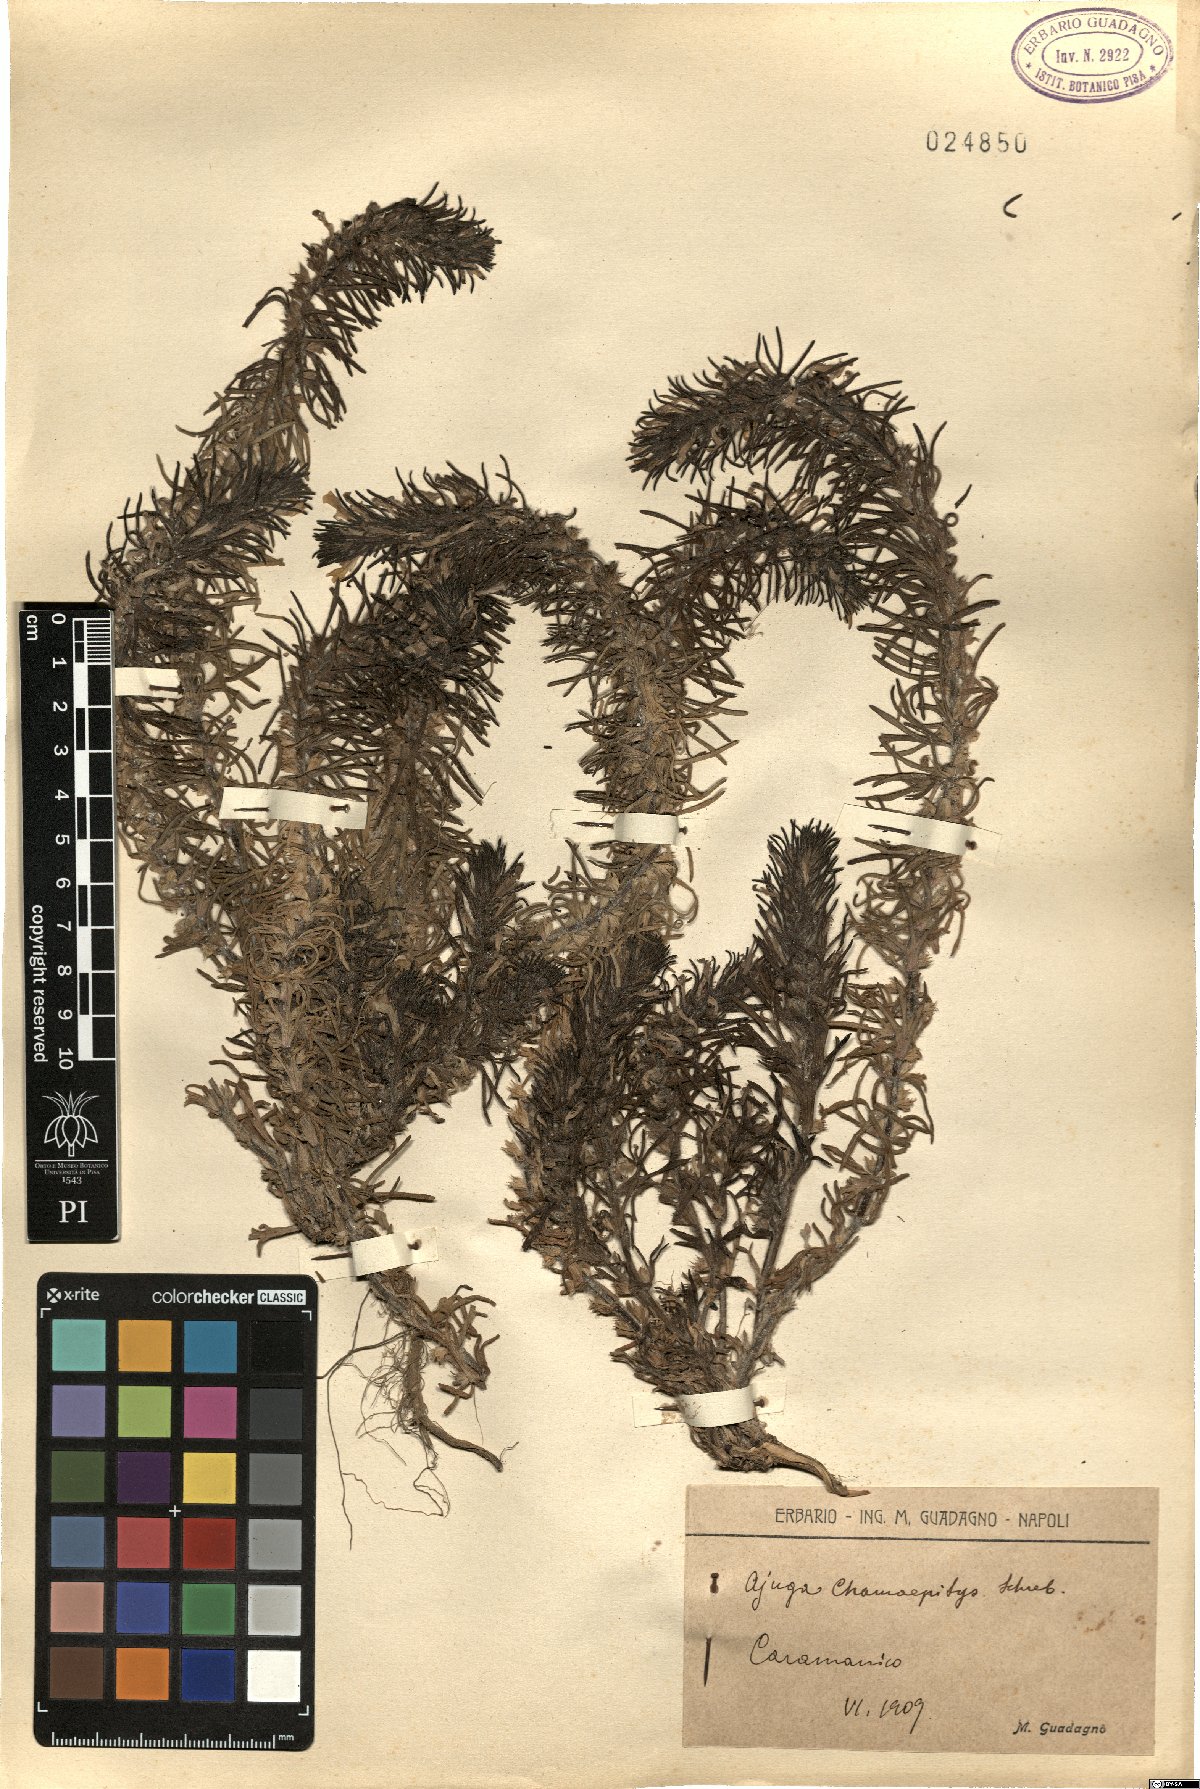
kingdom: Plantae
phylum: Tracheophyta
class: Magnoliopsida
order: Lamiales
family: Lamiaceae
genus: Ajuga
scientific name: Ajuga chamaepitys
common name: Ground-pine
